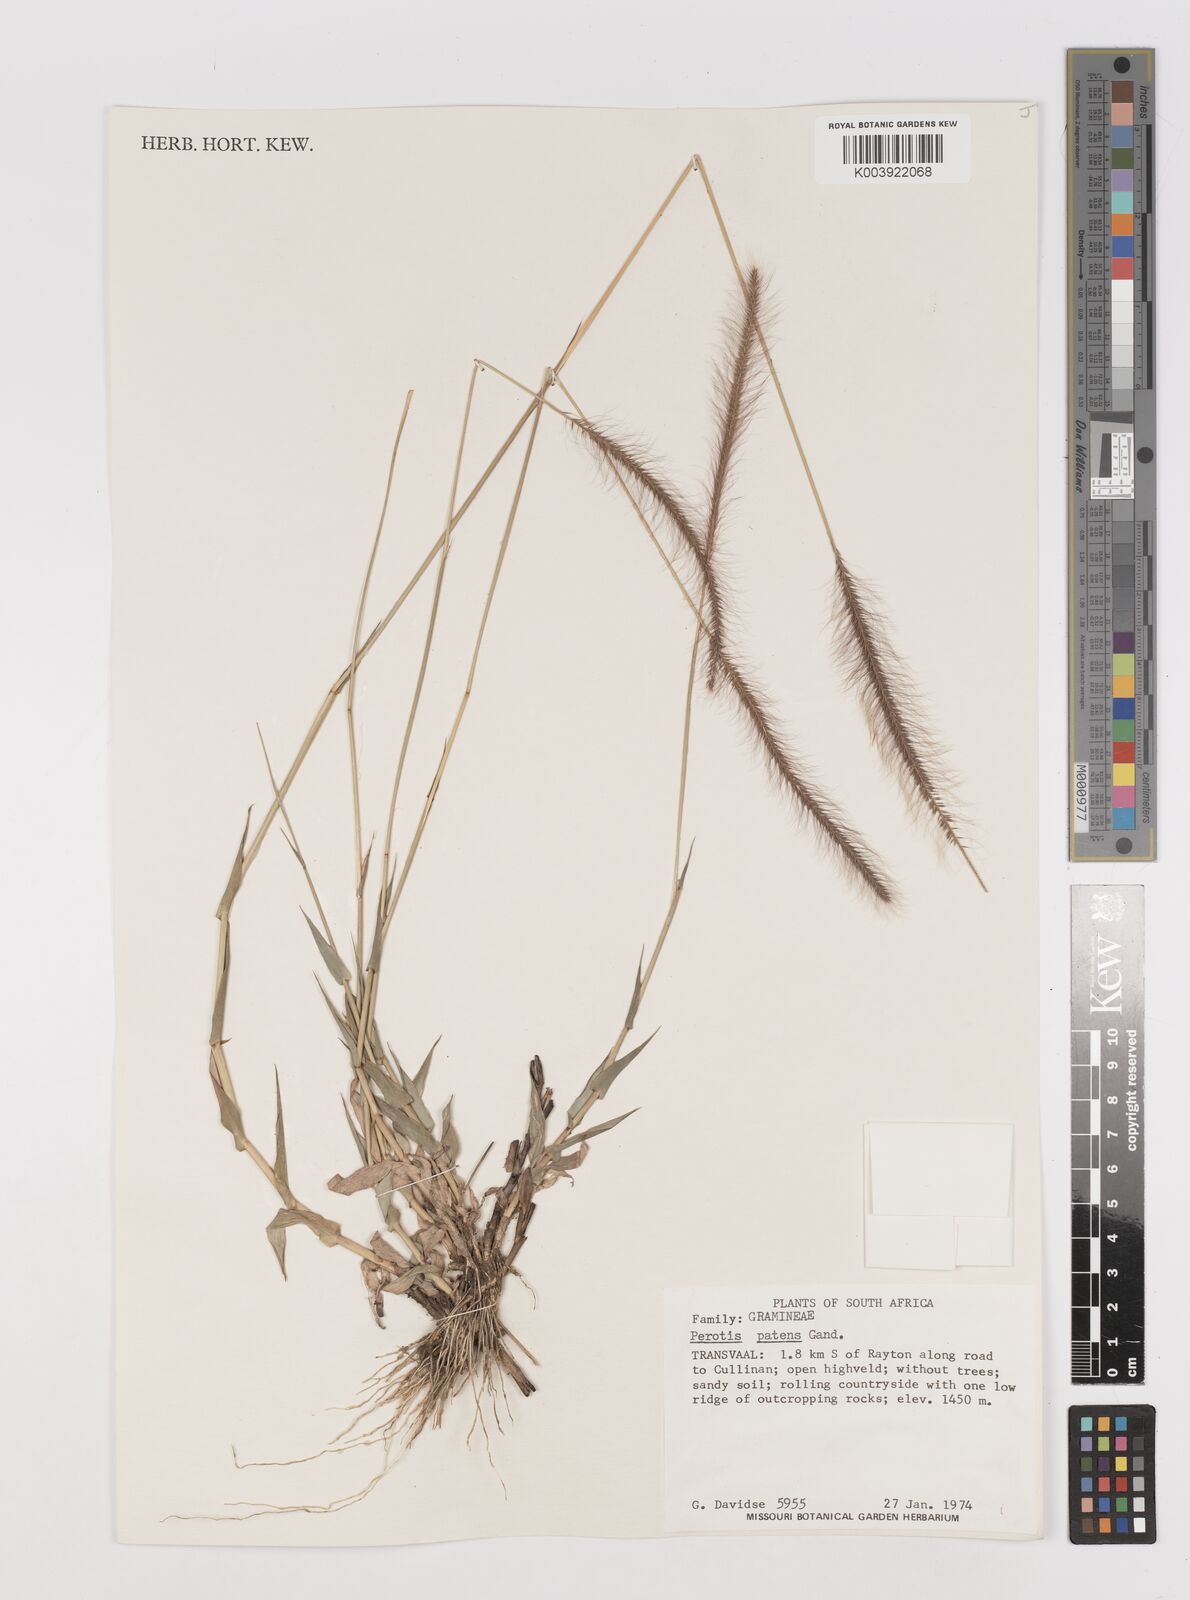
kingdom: Plantae
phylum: Tracheophyta
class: Liliopsida
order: Poales
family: Poaceae
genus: Perotis
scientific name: Perotis patens
